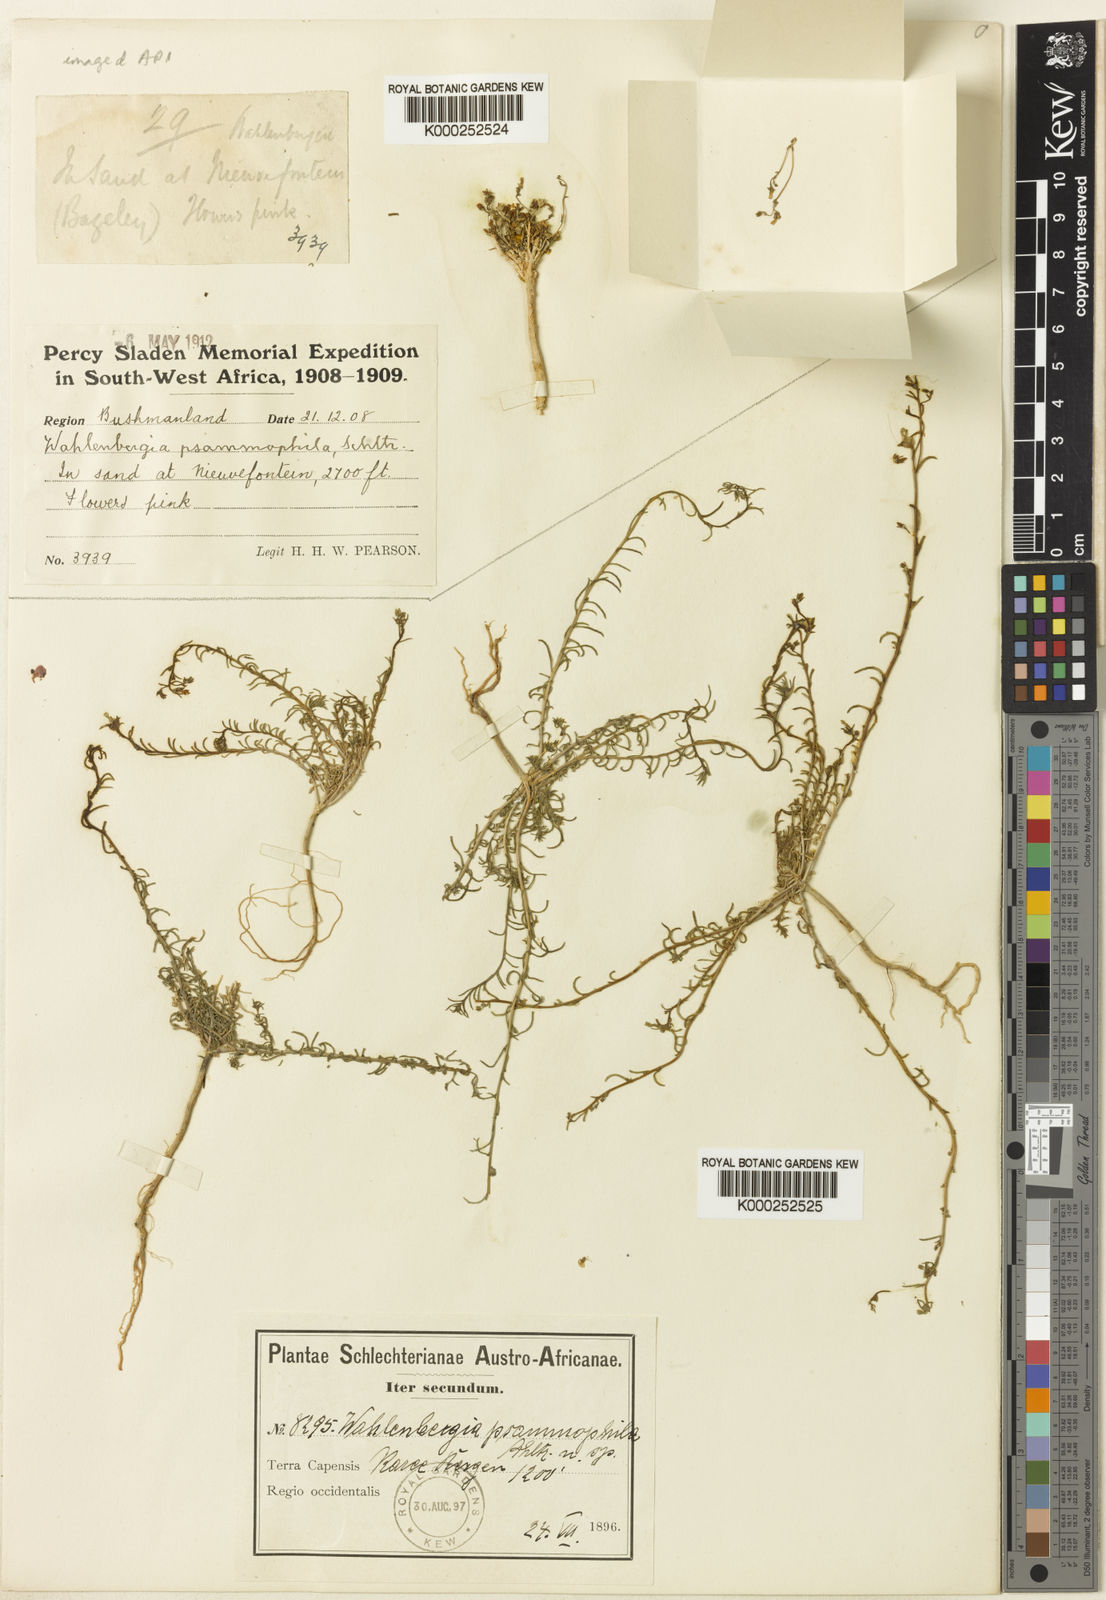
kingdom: Plantae
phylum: Tracheophyta
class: Magnoliopsida
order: Asterales
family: Campanulaceae
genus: Wahlenbergia
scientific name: Wahlenbergia psammophila
